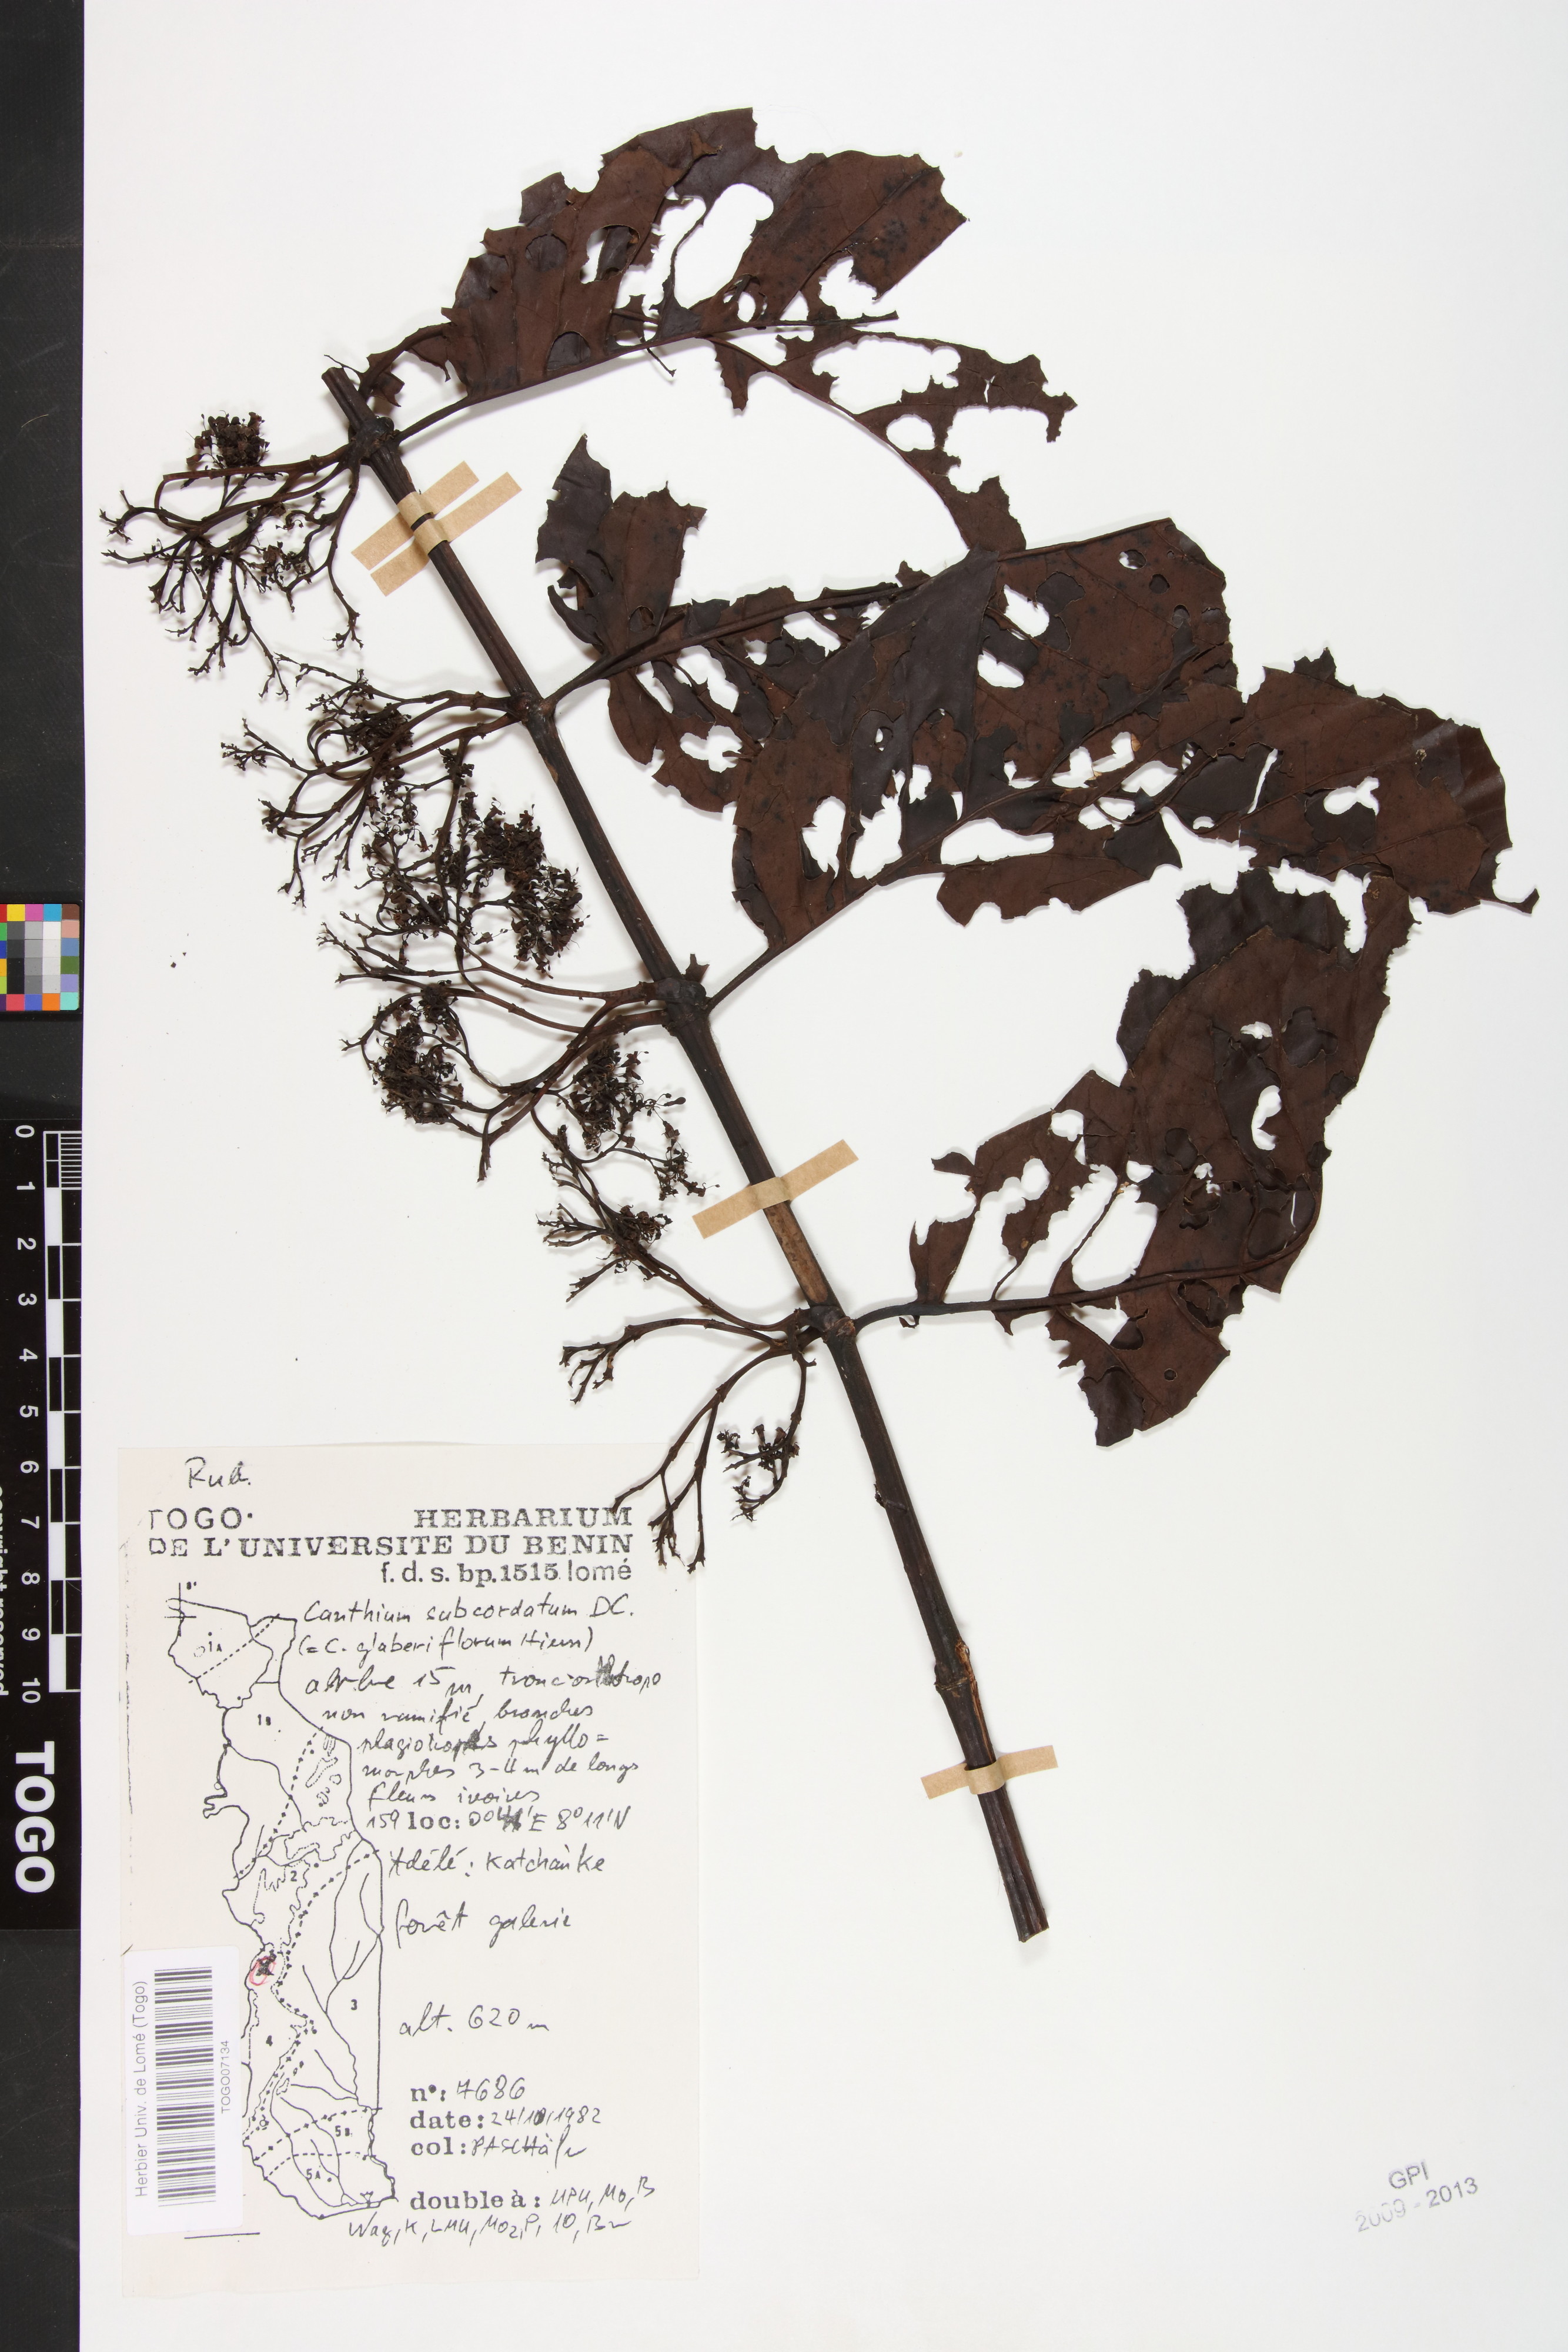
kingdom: Plantae
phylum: Tracheophyta
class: Magnoliopsida
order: Gentianales
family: Rubiaceae
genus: Psydrax
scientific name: Psydrax subcordatus
